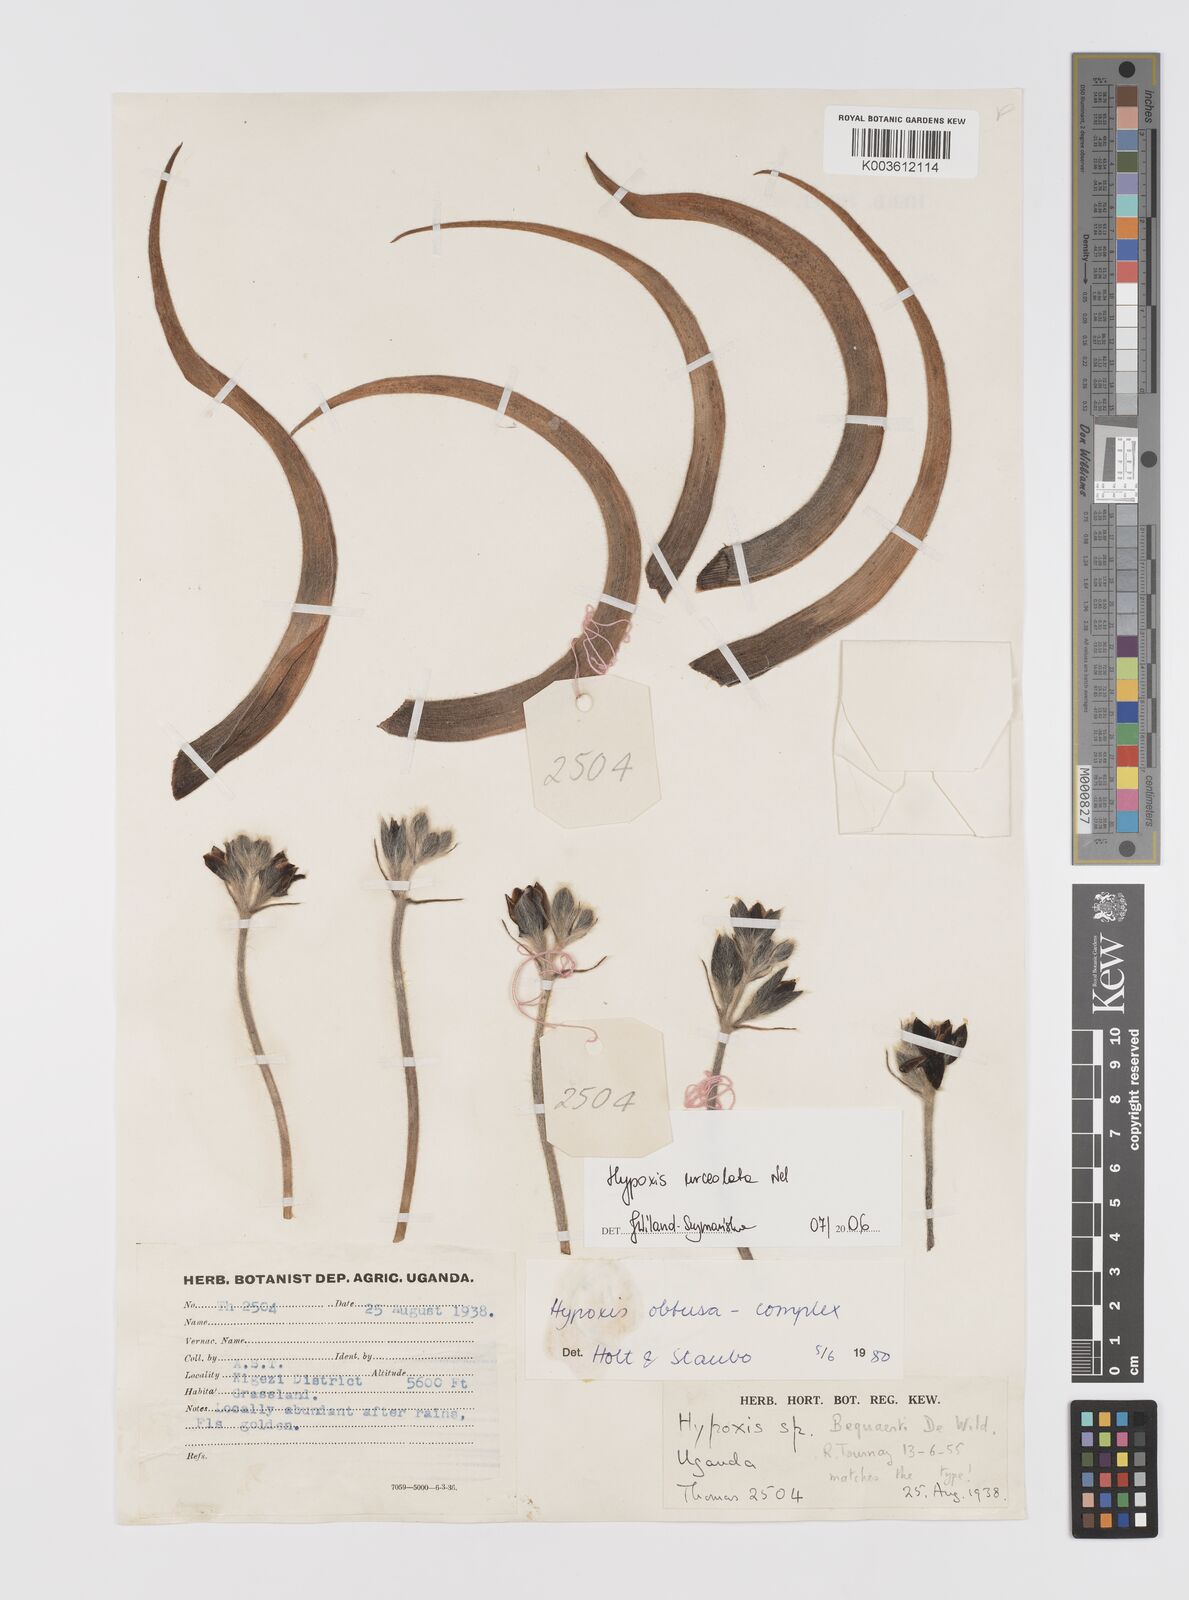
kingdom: Plantae
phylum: Tracheophyta
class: Liliopsida
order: Asparagales
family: Hypoxidaceae
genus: Hypoxis
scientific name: Hypoxis urceolata
